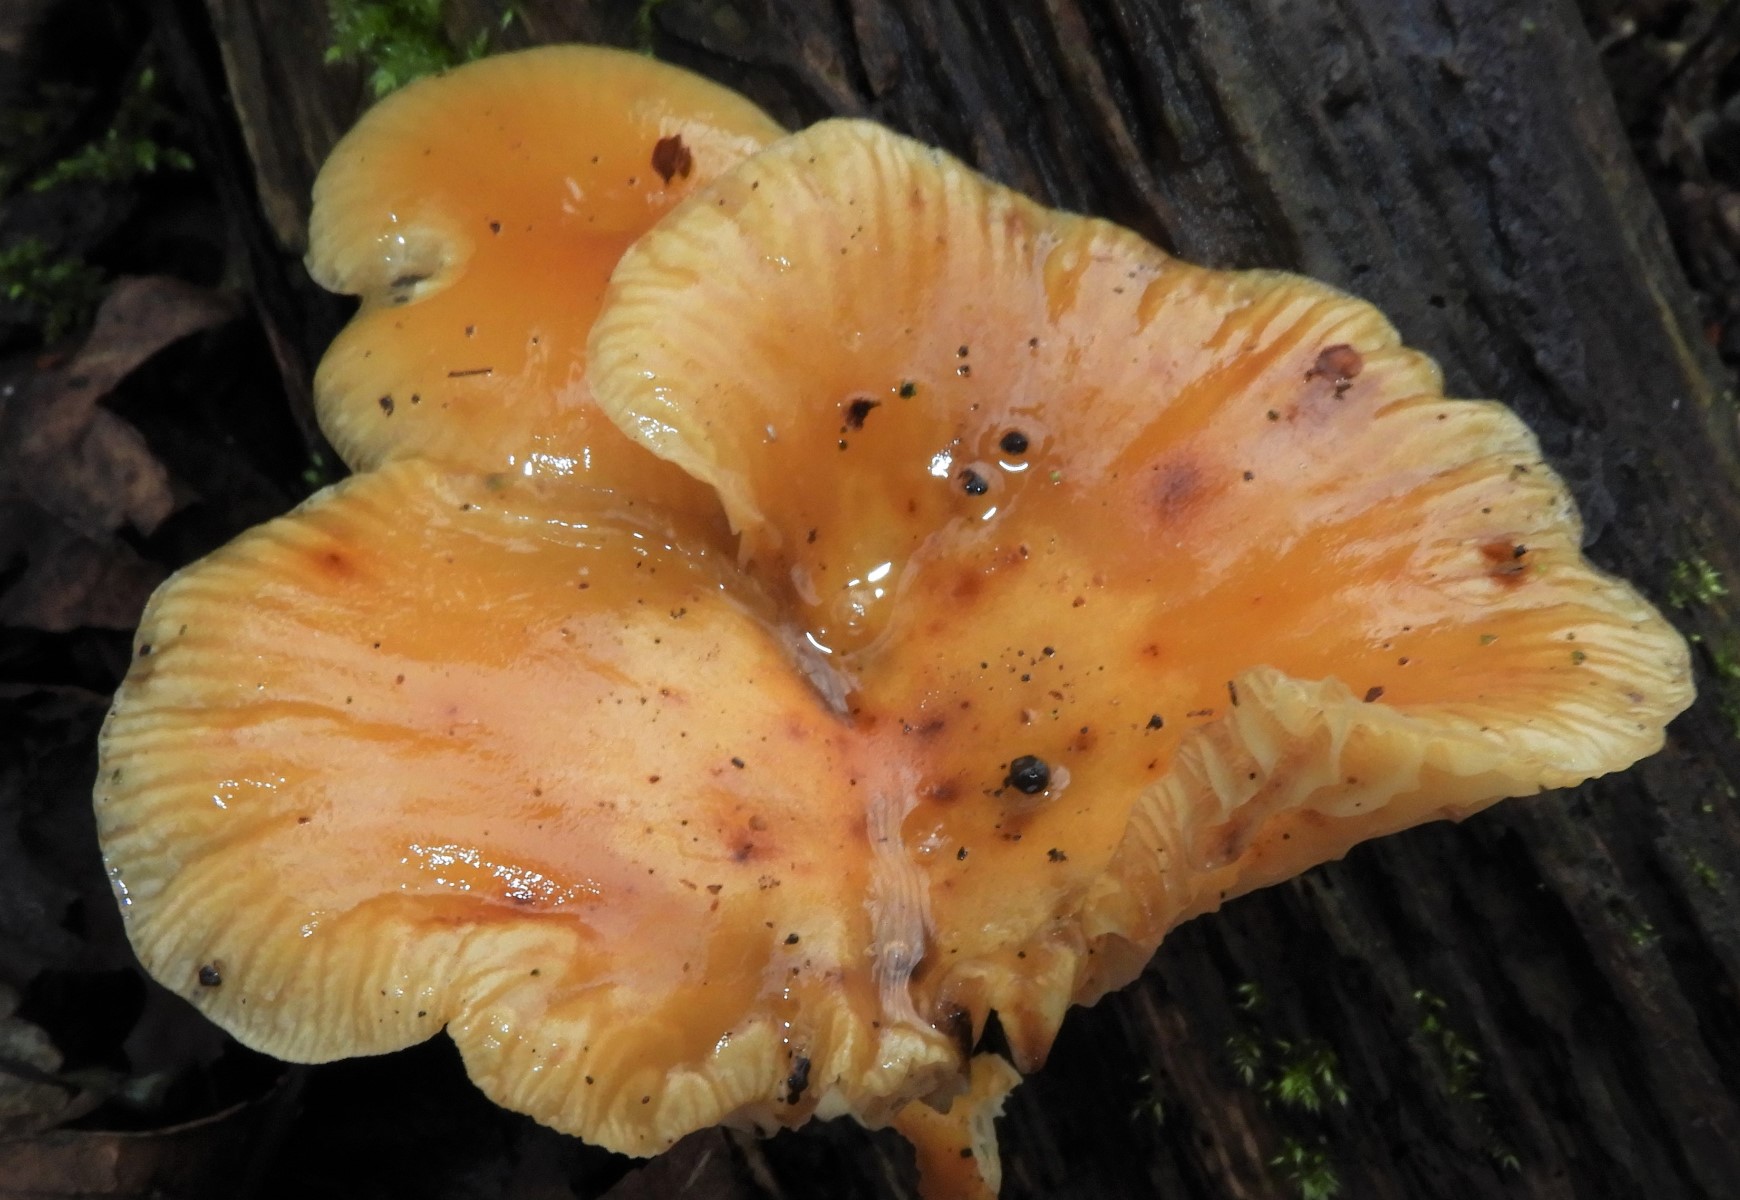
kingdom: Fungi
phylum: Basidiomycota
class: Agaricomycetes
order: Agaricales
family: Physalacriaceae
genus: Flammulina
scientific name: Flammulina
